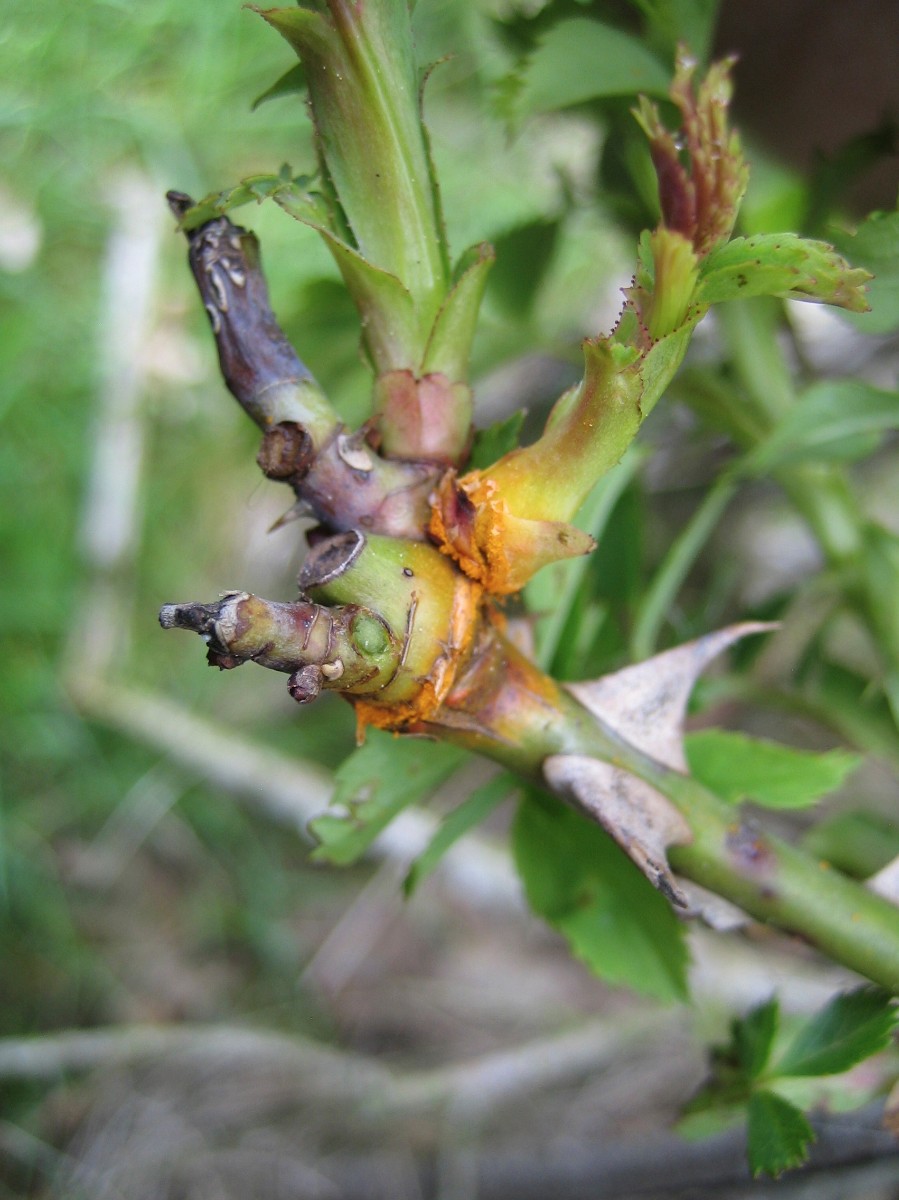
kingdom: Fungi
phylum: Basidiomycota
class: Pucciniomycetes
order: Pucciniales
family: Phragmidiaceae
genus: Phragmidium
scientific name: Phragmidium
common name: flercellerust
